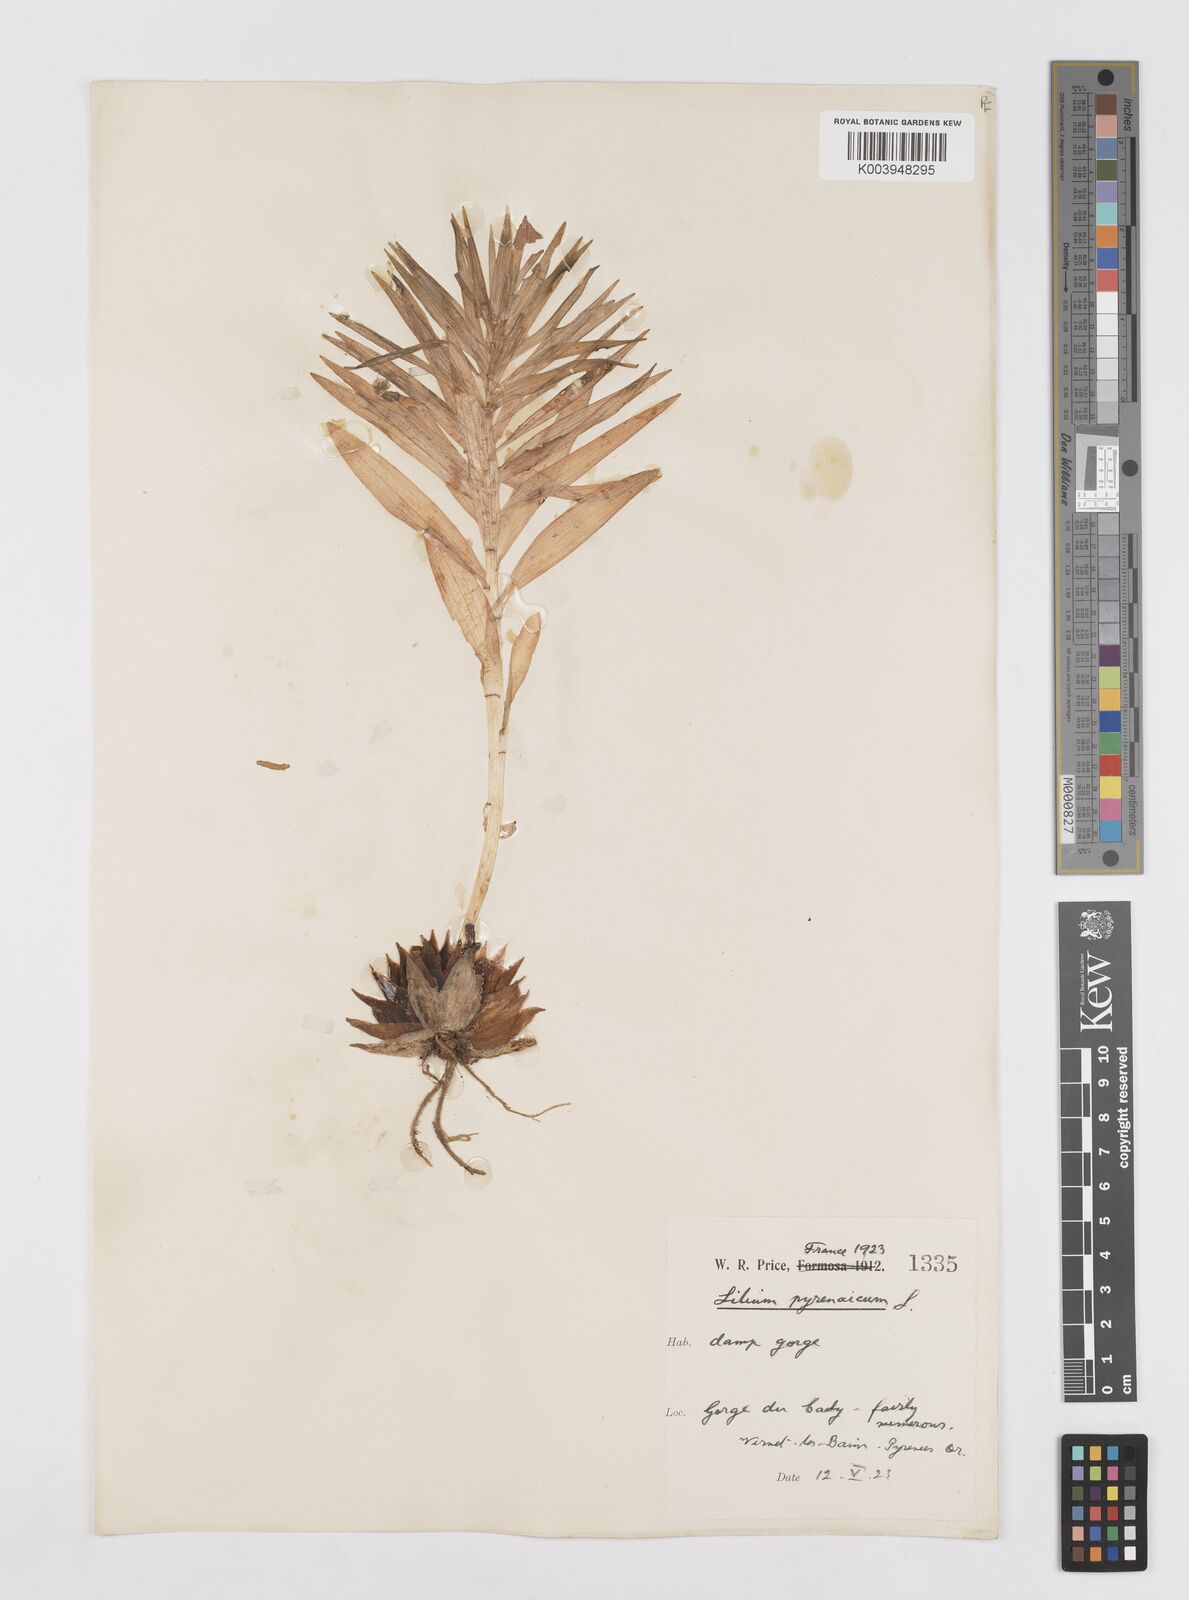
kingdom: Plantae
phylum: Tracheophyta
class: Liliopsida
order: Liliales
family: Liliaceae
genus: Lilium
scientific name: Lilium pyrenaicum
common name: Pyrenean lily
